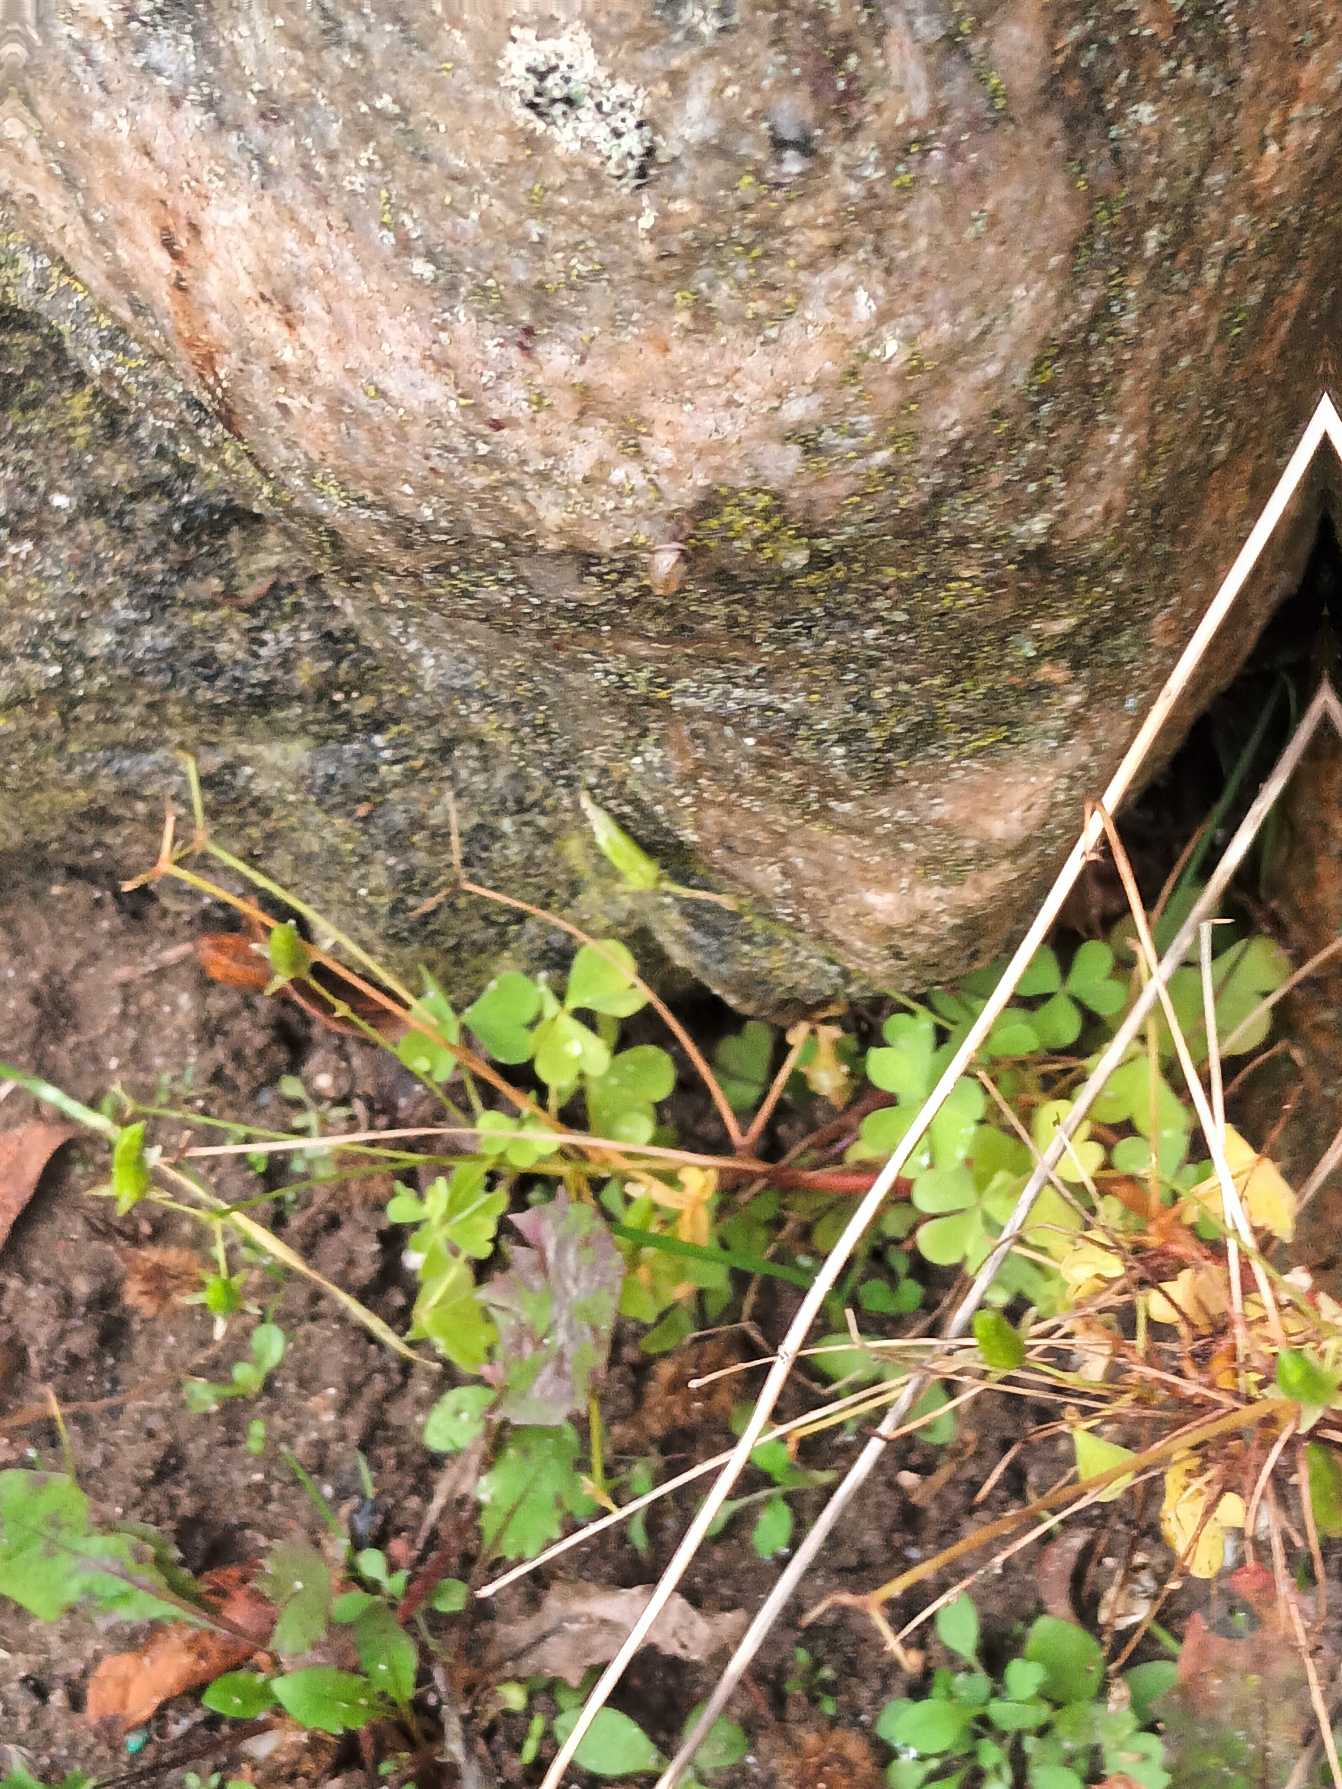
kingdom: Plantae
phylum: Tracheophyta
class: Magnoliopsida
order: Oxalidales
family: Oxalidaceae
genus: Oxalis
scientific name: Oxalis stricta
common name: Rank surkløver
